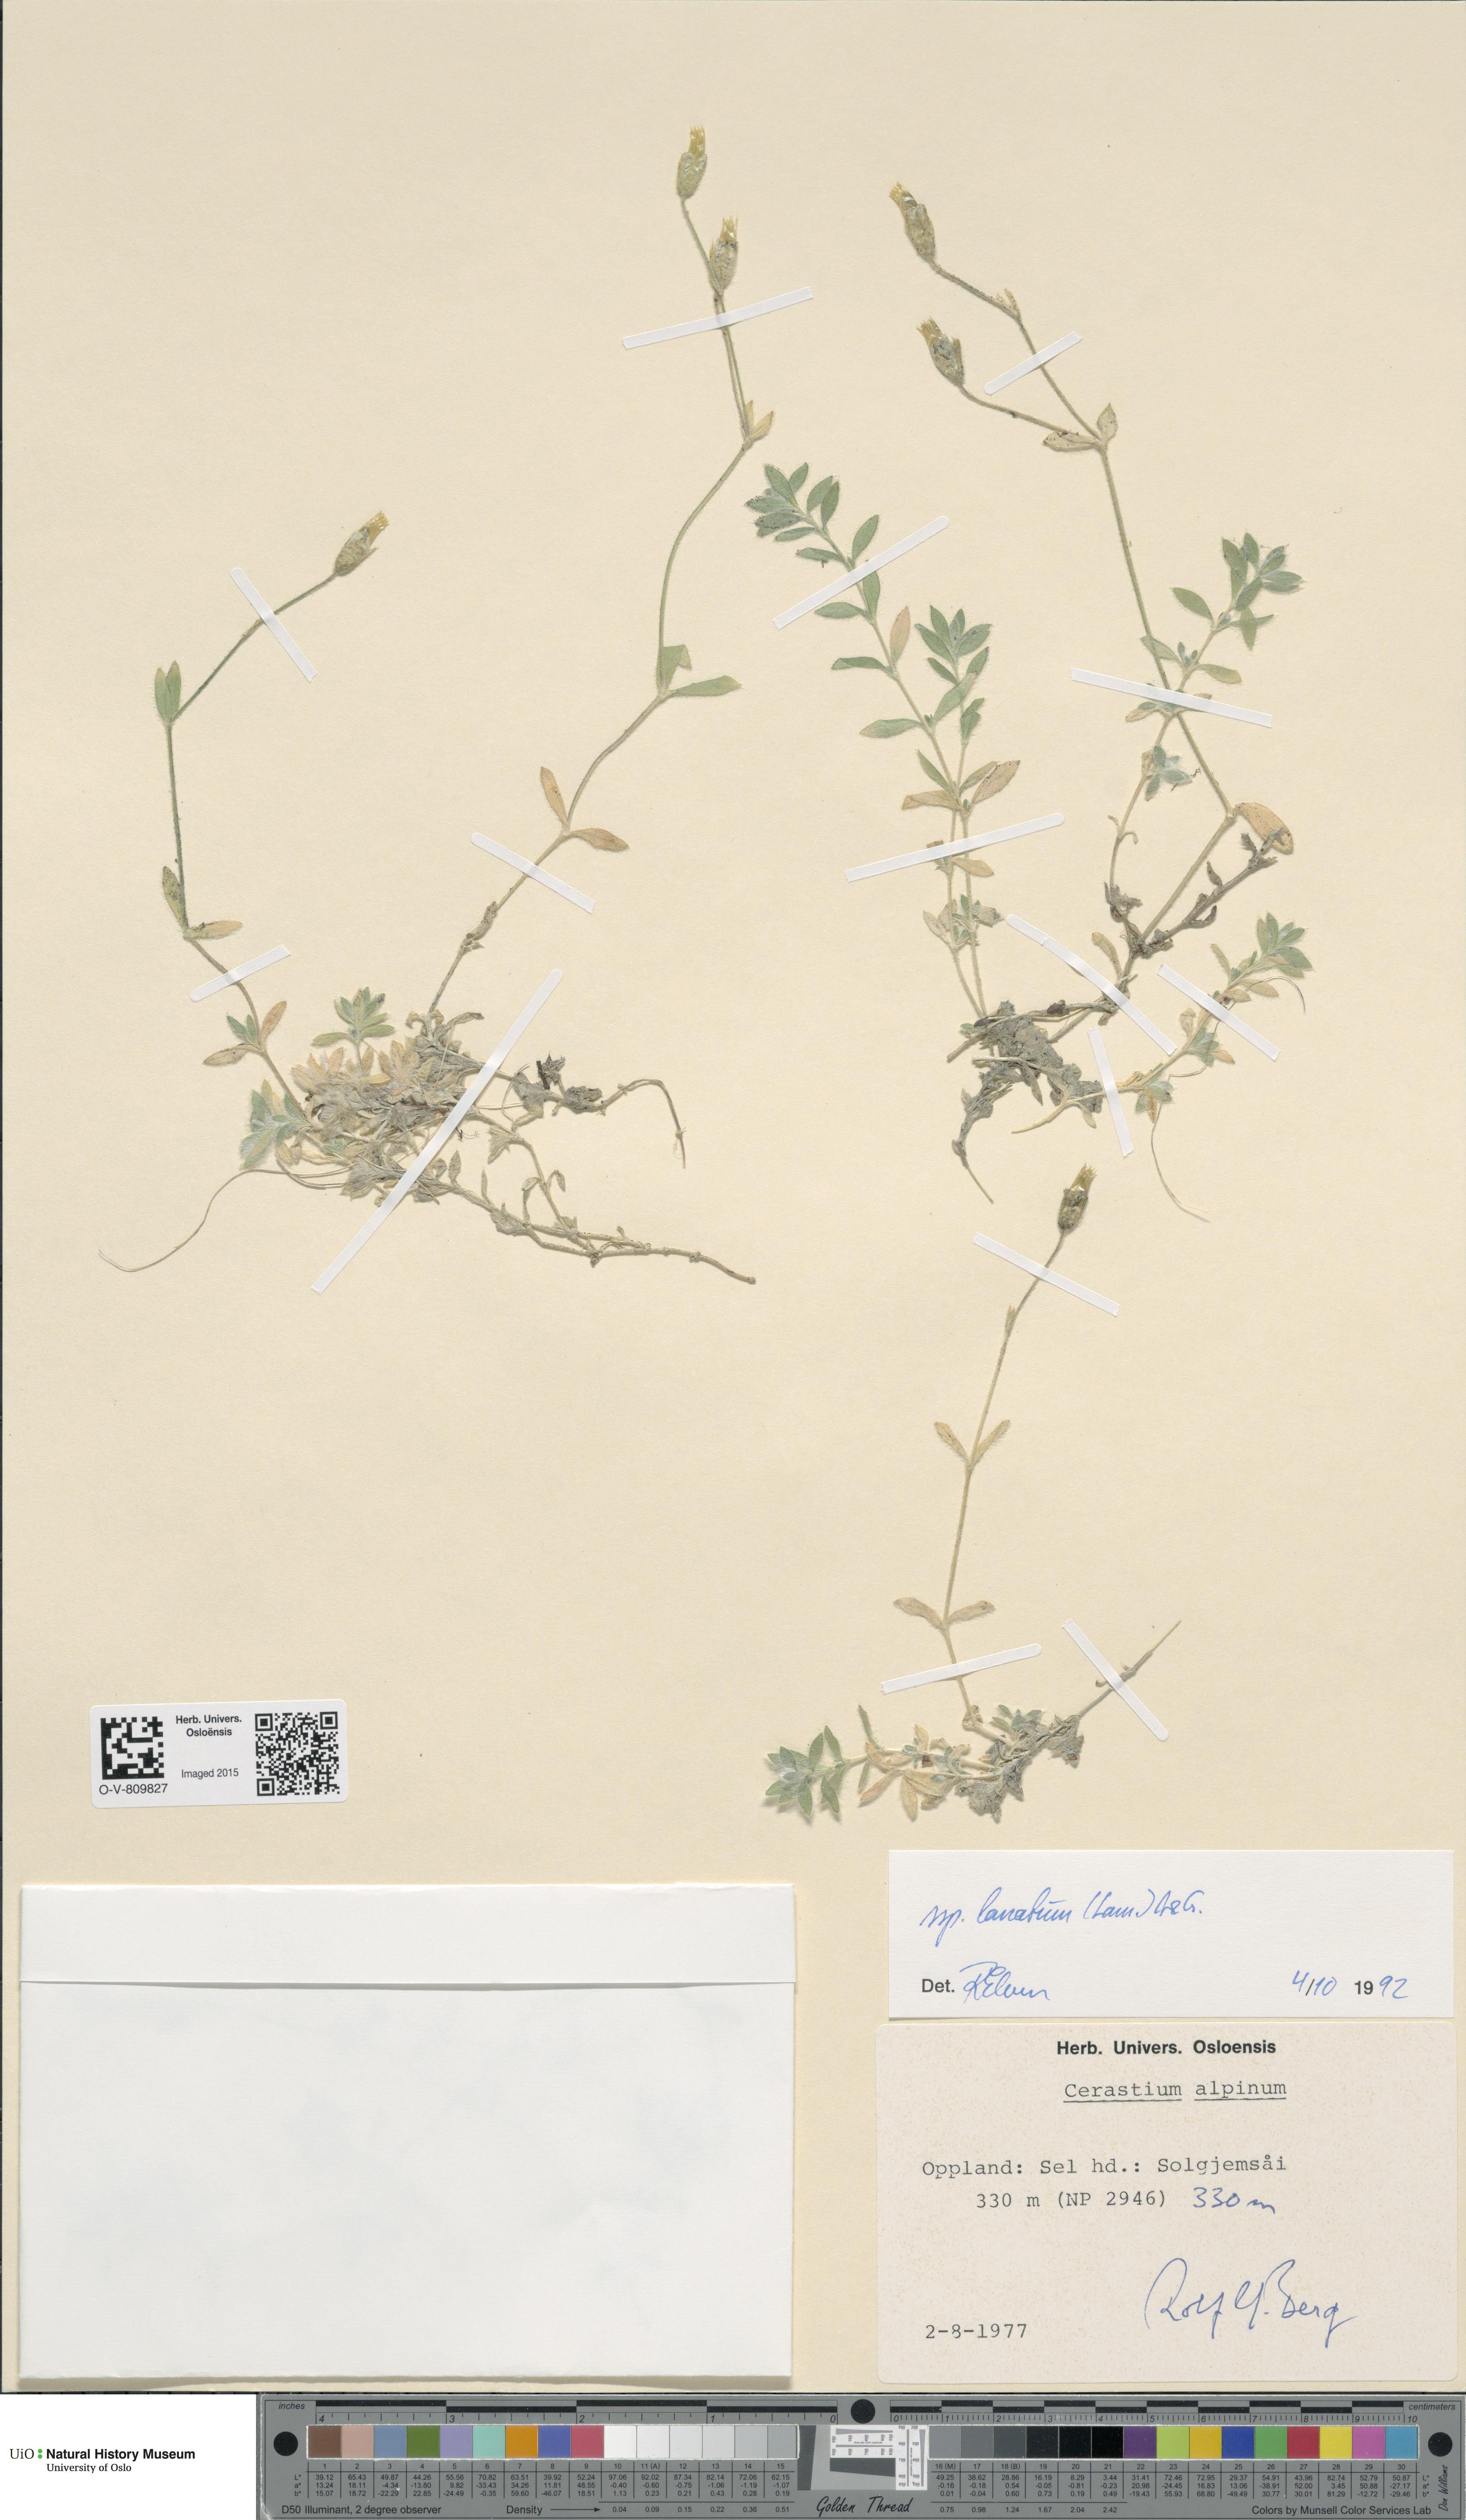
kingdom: Plantae
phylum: Tracheophyta
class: Magnoliopsida
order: Caryophyllales
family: Caryophyllaceae
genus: Cerastium
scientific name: Cerastium alpinum
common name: Alpine mouse-ear
